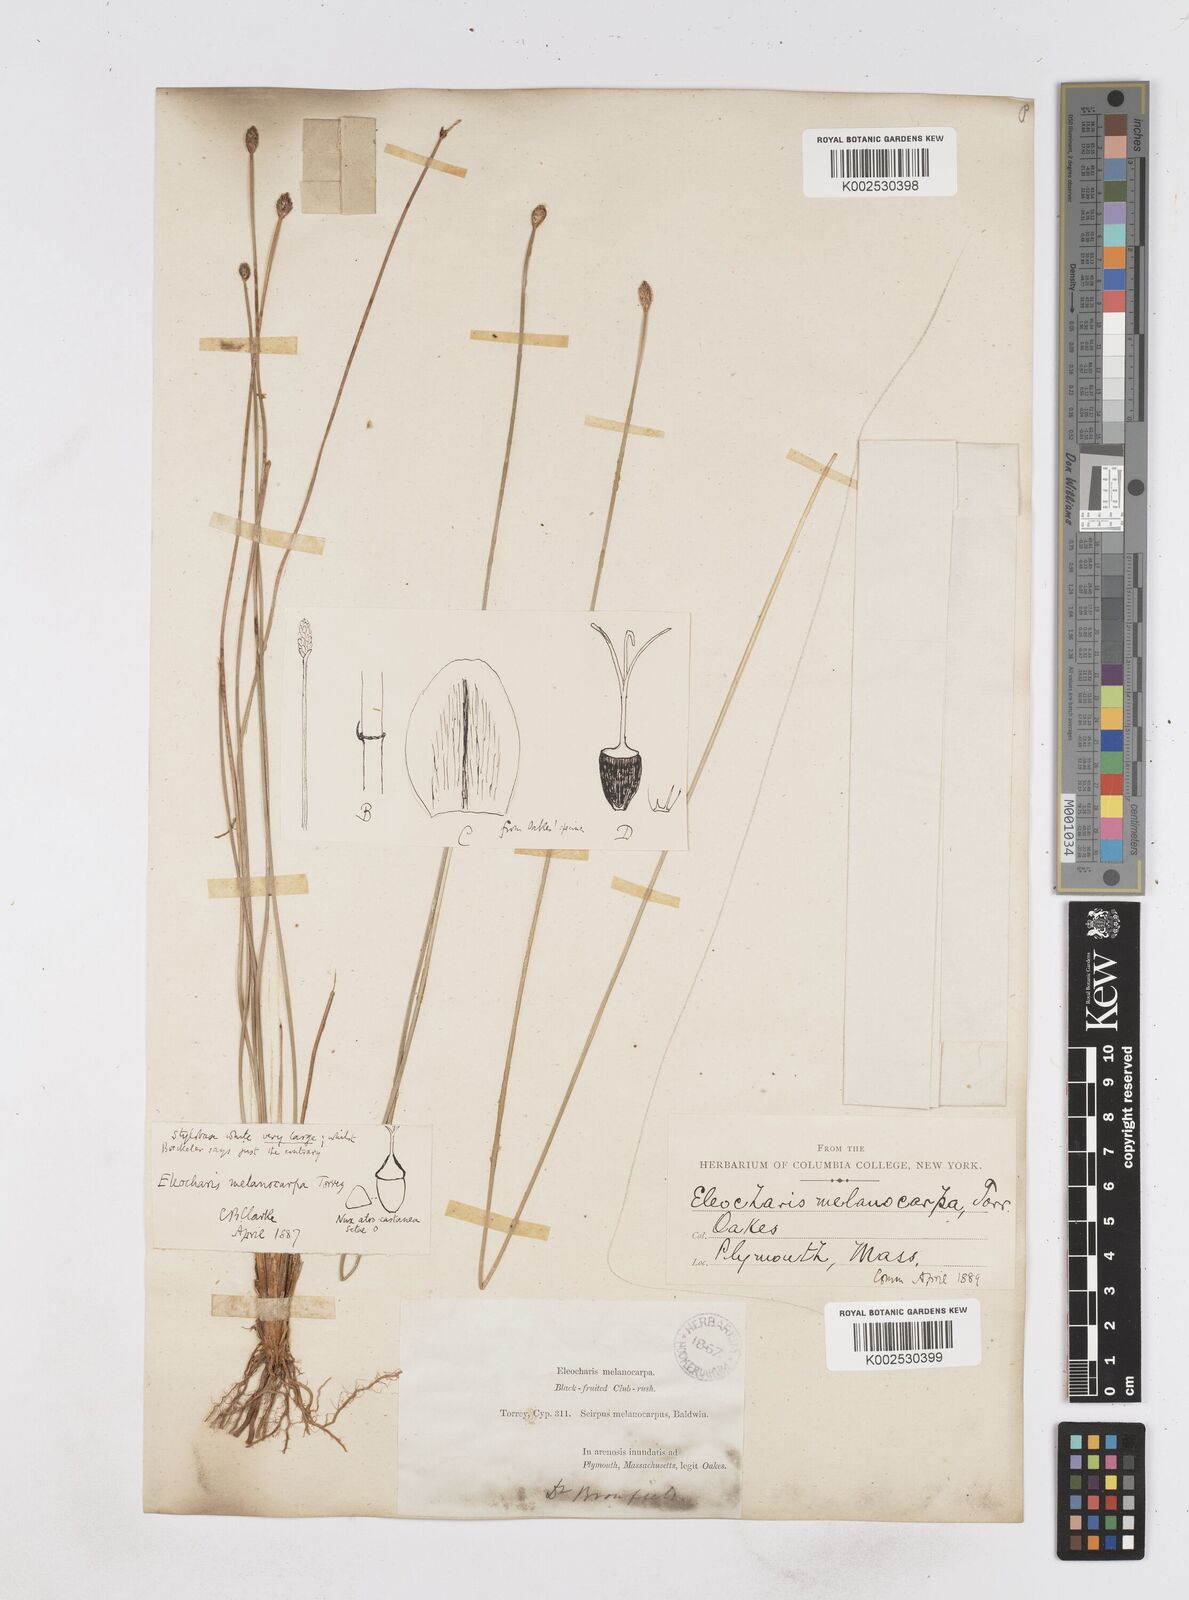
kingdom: Plantae
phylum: Tracheophyta
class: Liliopsida
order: Poales
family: Cyperaceae
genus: Eleocharis
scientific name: Eleocharis melanocarpa
